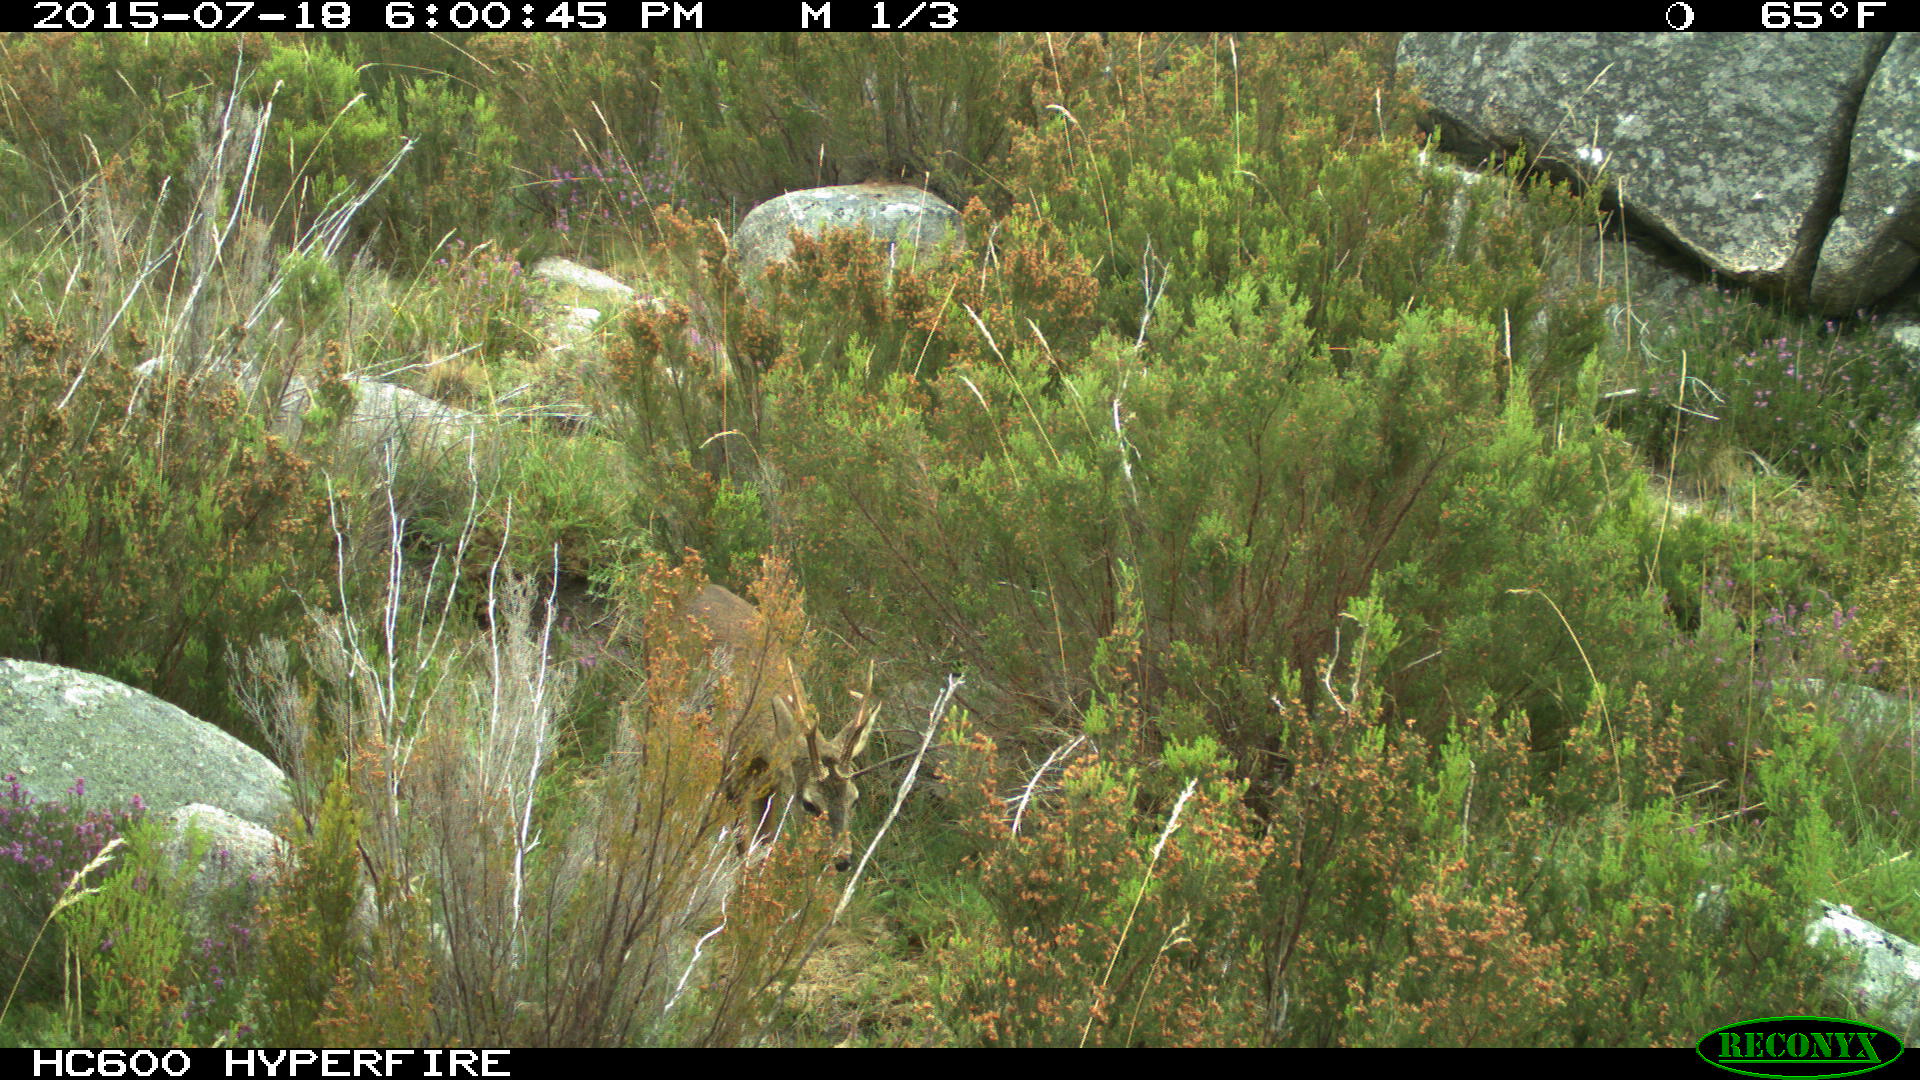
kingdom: Animalia
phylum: Chordata
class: Mammalia
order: Artiodactyla
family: Cervidae
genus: Capreolus
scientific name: Capreolus capreolus
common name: Western roe deer
